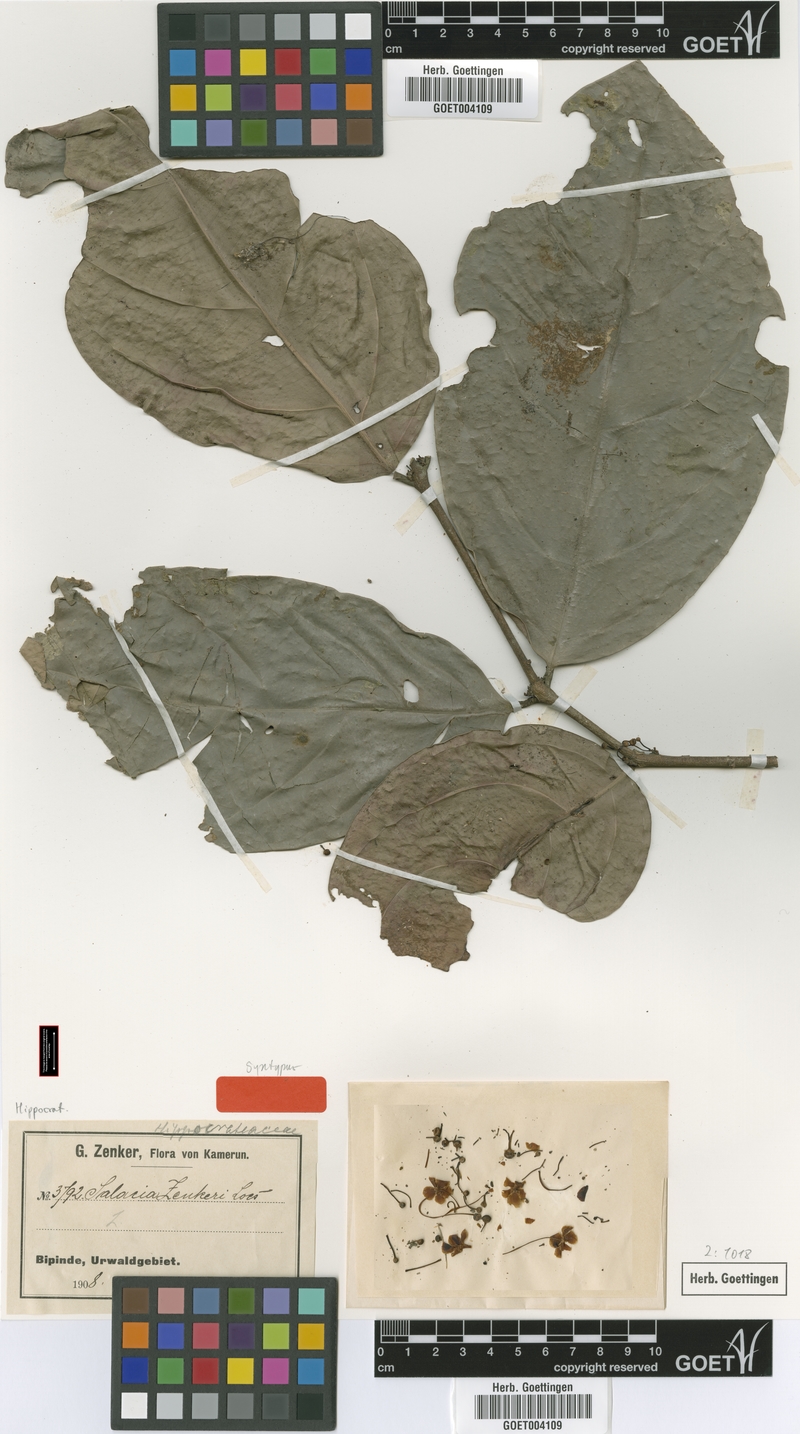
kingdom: Plantae
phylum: Tracheophyta
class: Magnoliopsida
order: Celastrales
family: Celastraceae
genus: Salacia
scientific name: Salacia zenkeri
